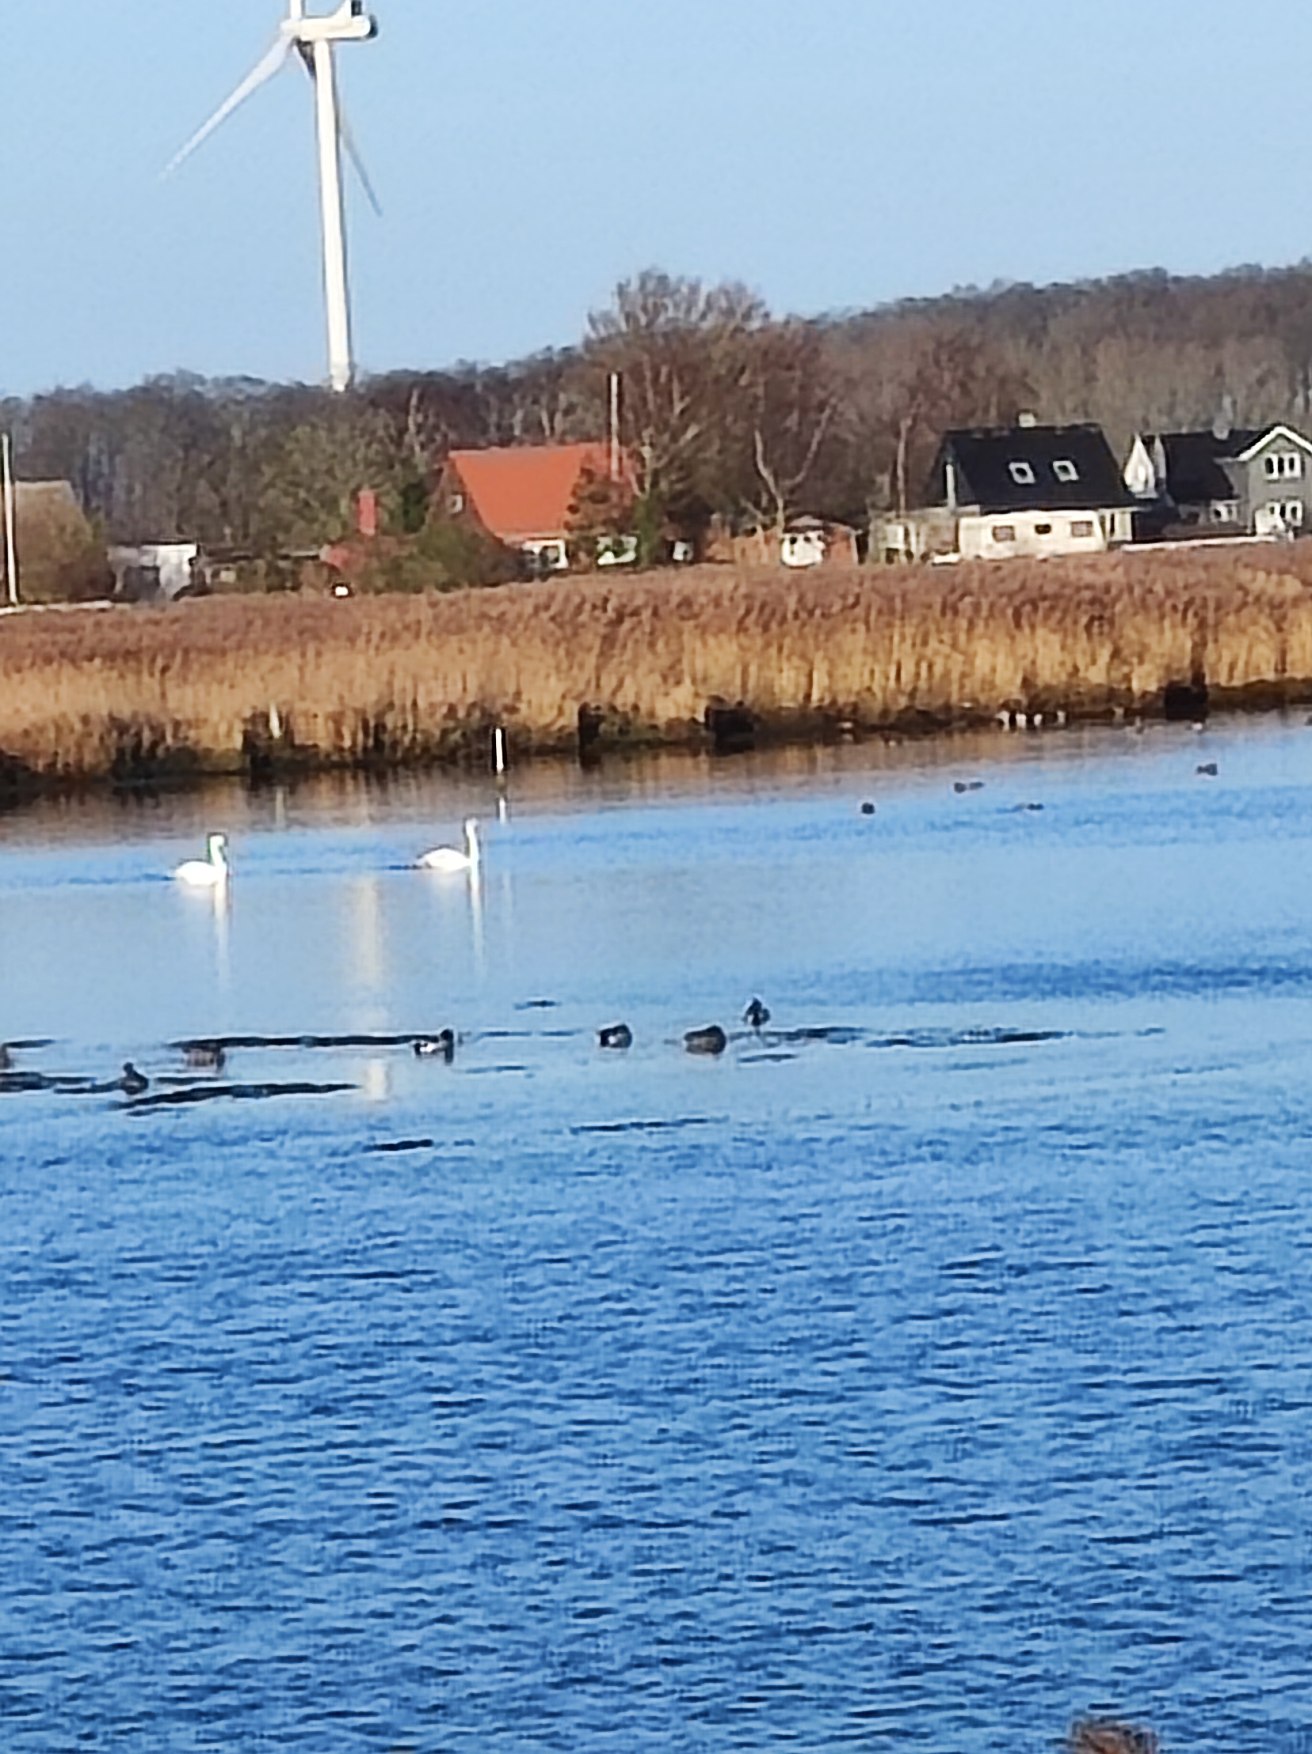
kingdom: Animalia
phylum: Chordata
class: Aves
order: Anseriformes
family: Anatidae
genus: Anas
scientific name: Anas platyrhynchos
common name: Gråand
